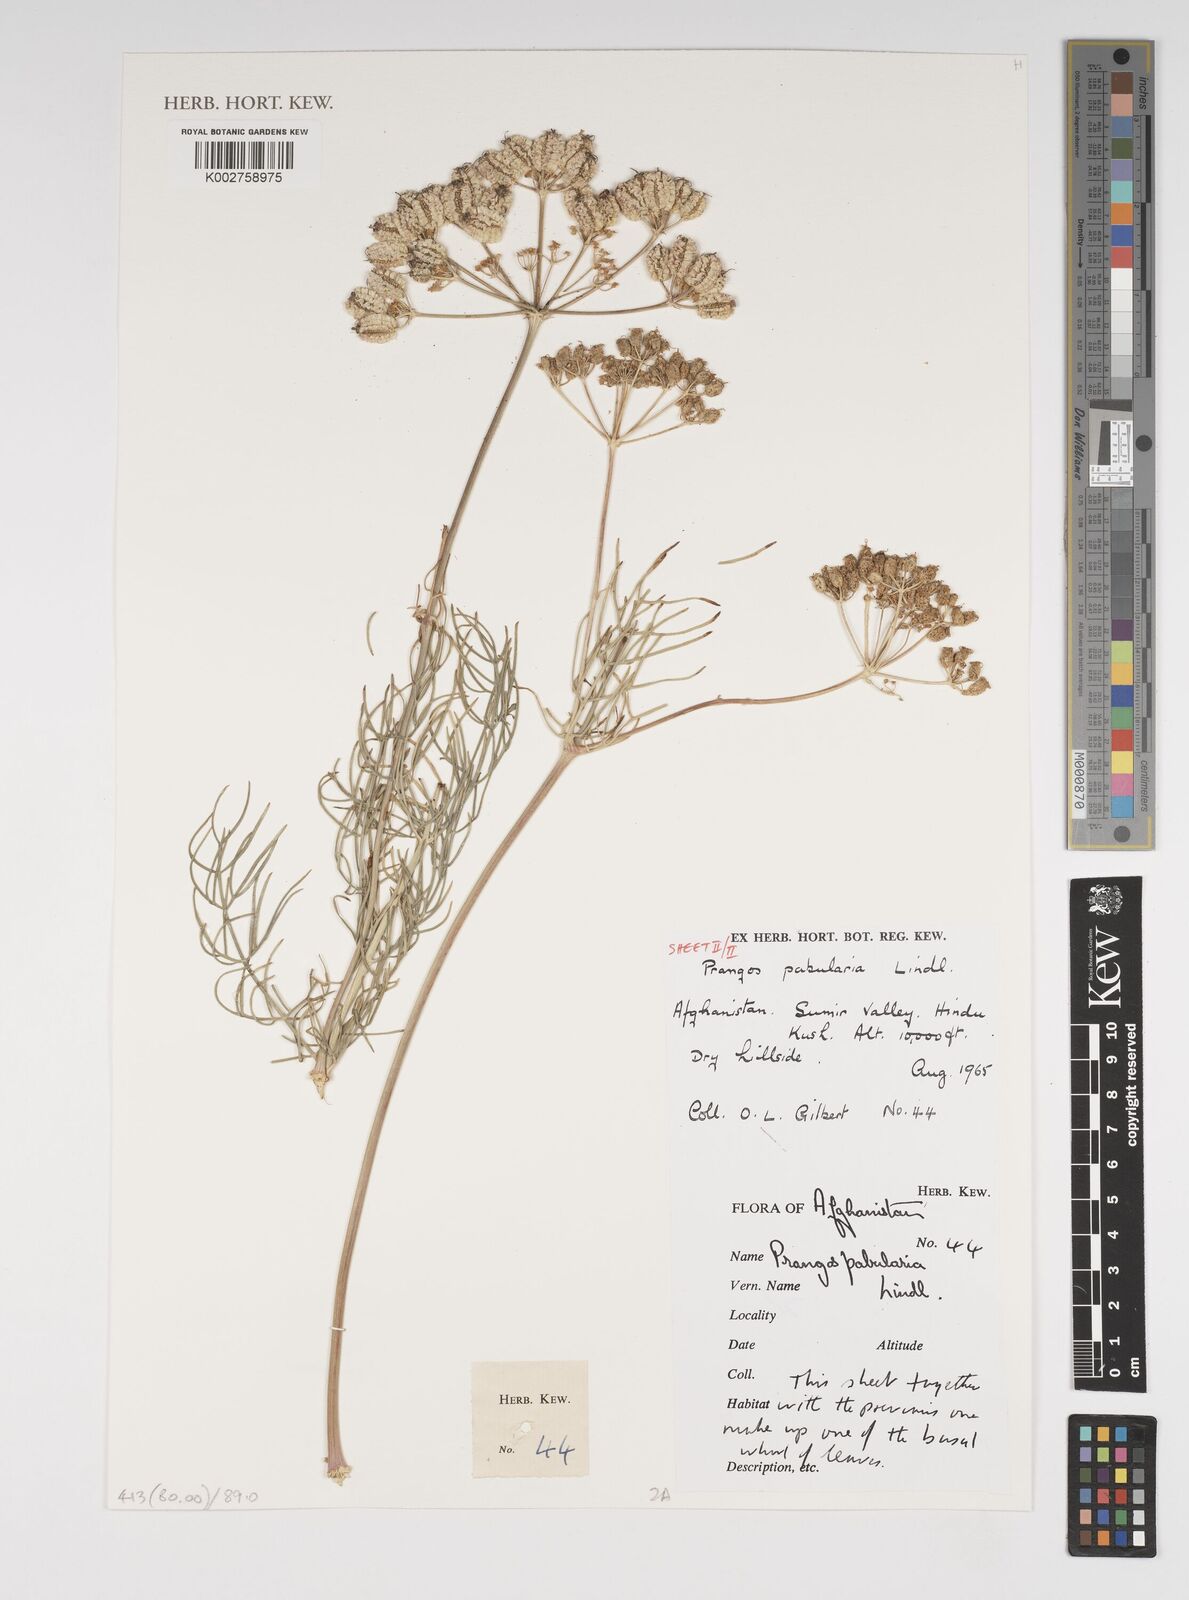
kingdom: Plantae
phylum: Tracheophyta
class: Magnoliopsida
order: Apiales
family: Apiaceae
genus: Prangos
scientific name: Prangos pabularia
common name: Yugan
